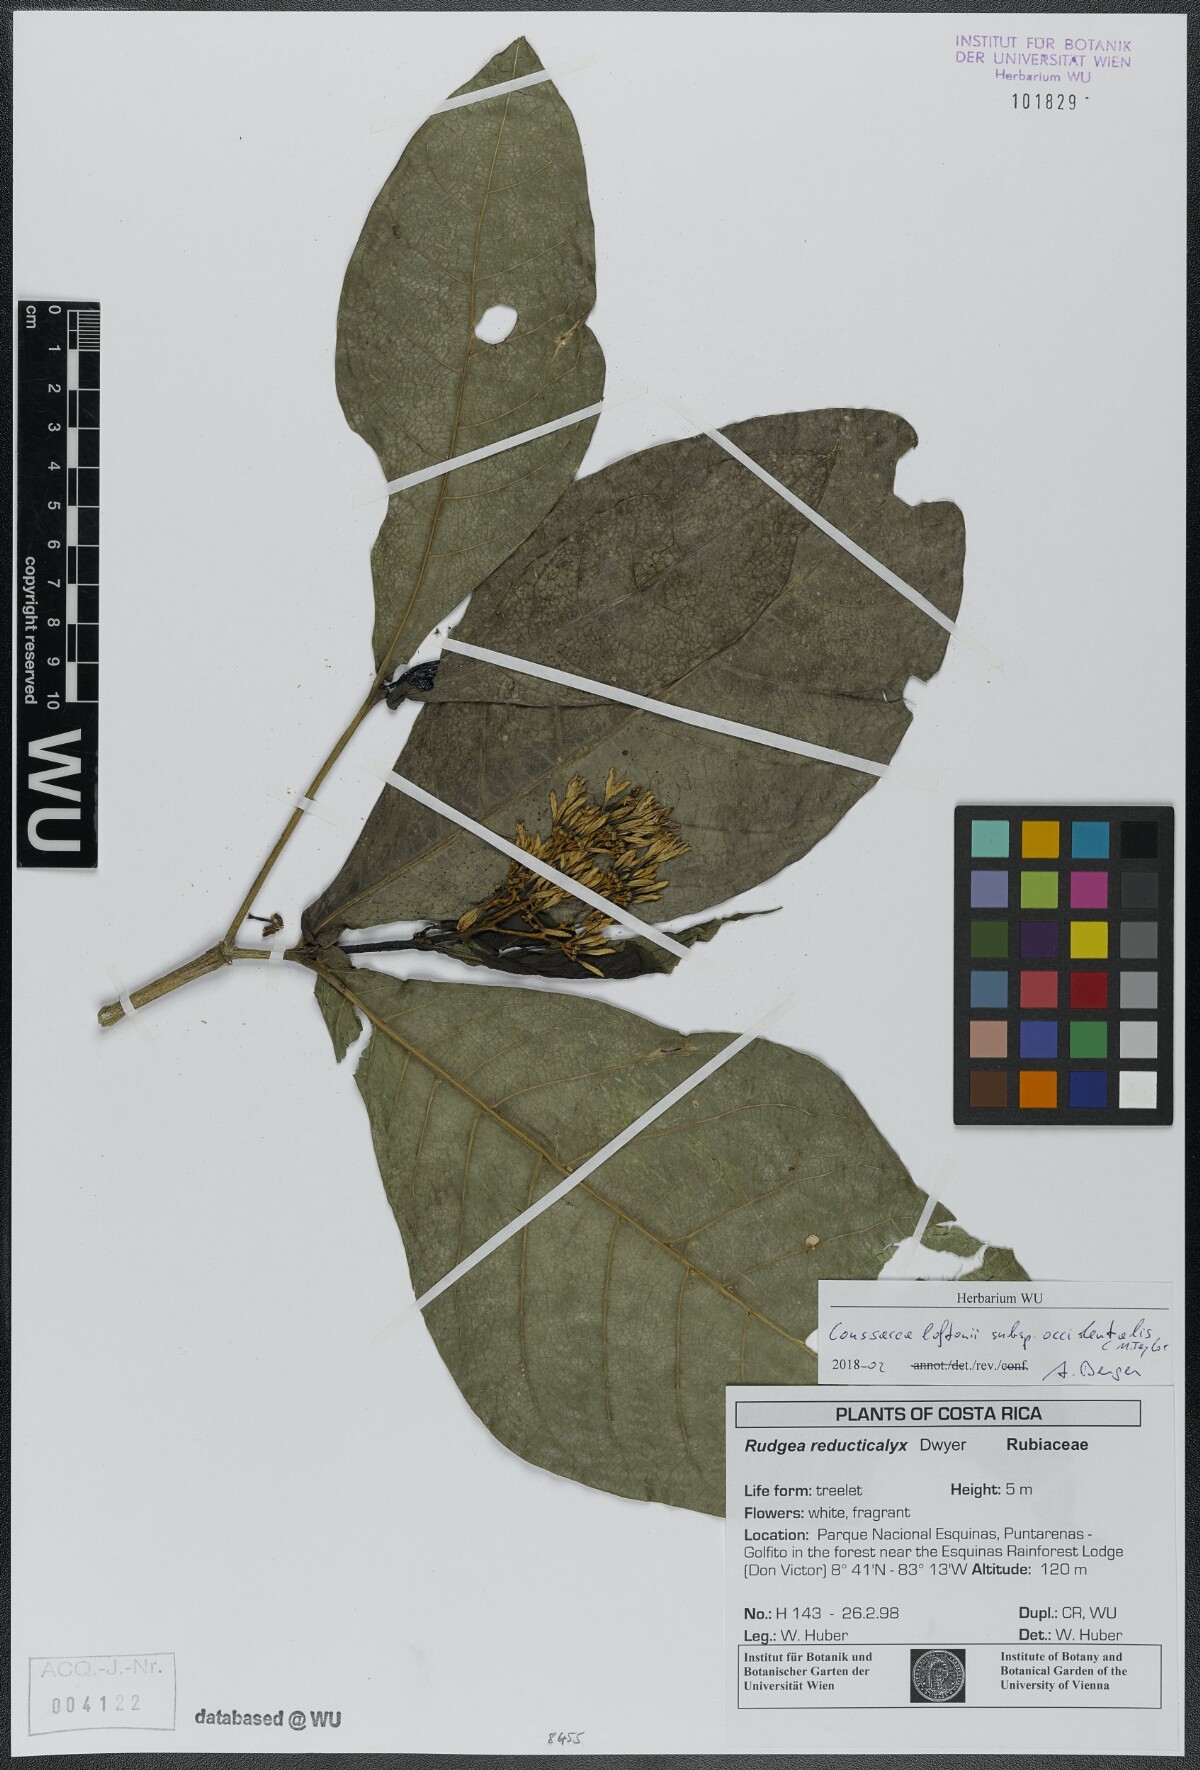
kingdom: Plantae
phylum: Tracheophyta
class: Magnoliopsida
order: Gentianales
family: Rubiaceae
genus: Coussarea
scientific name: Coussarea loftonii
